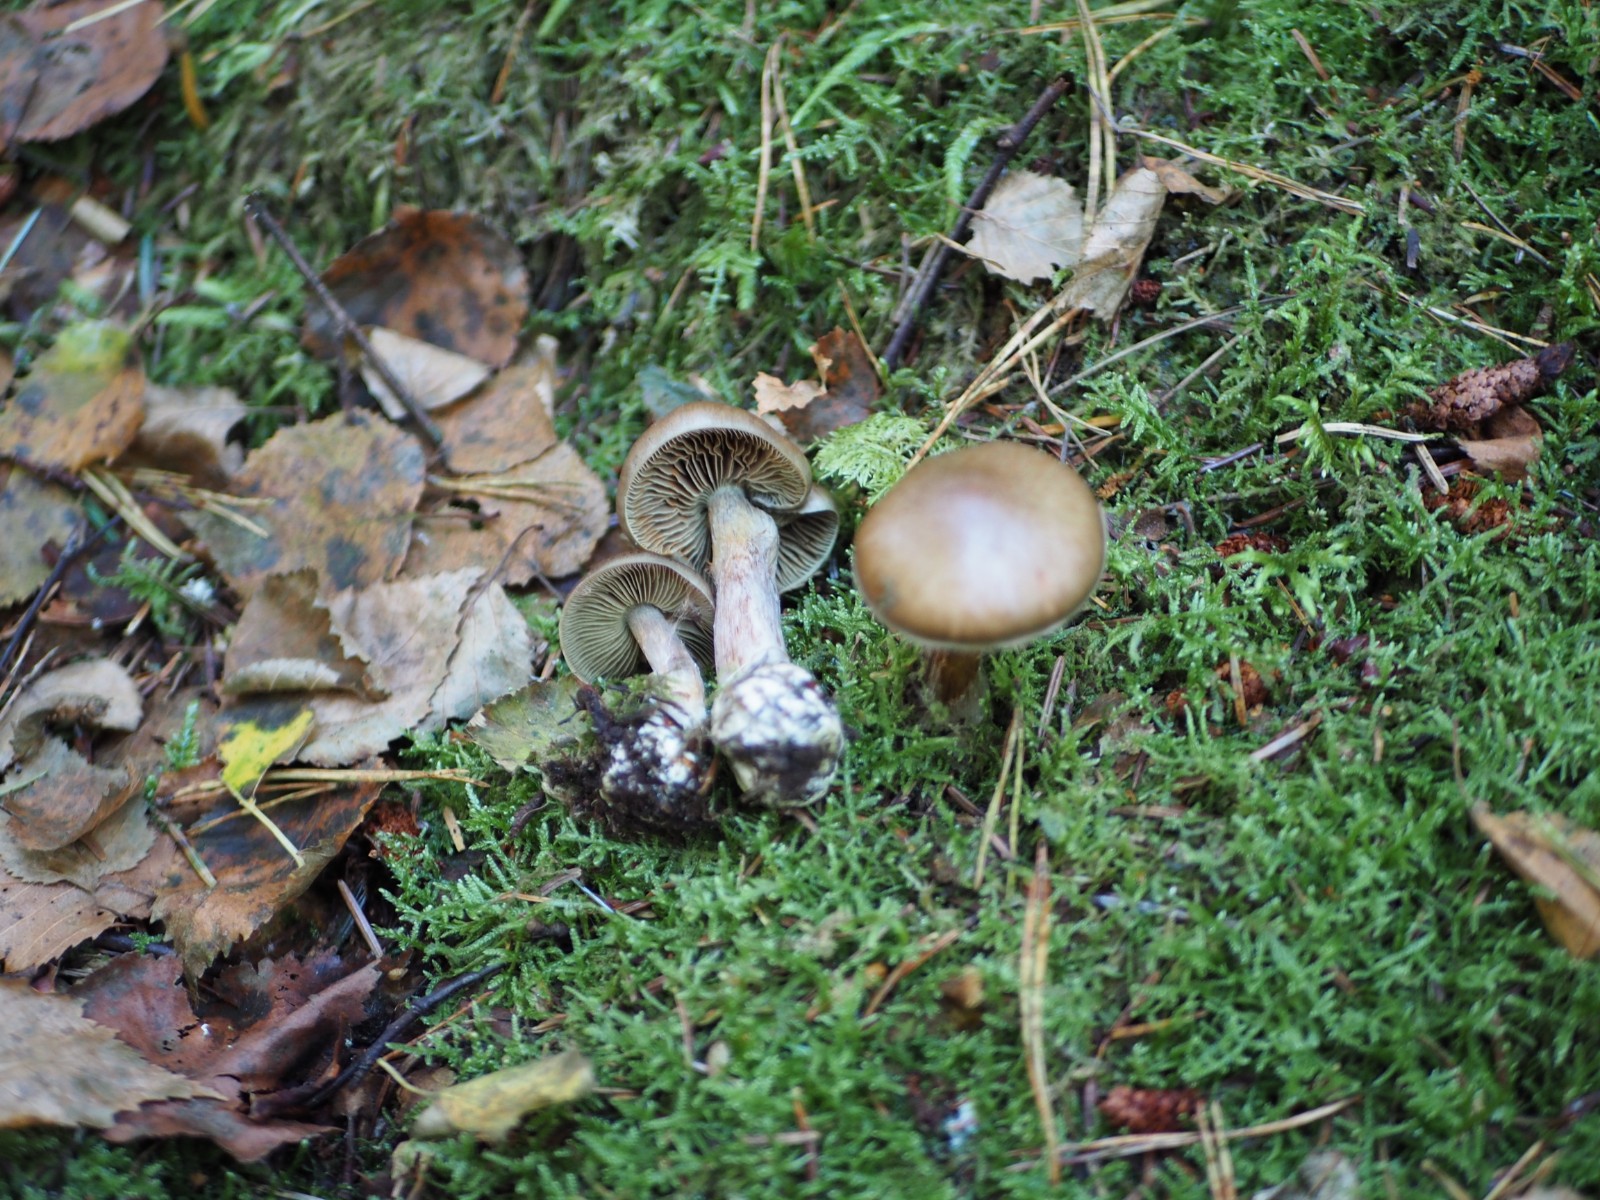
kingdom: Fungi
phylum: Basidiomycota
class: Agaricomycetes
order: Agaricales
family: Cortinariaceae
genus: Thaxterogaster
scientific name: Thaxterogaster scaurus
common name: sump-slørhat
